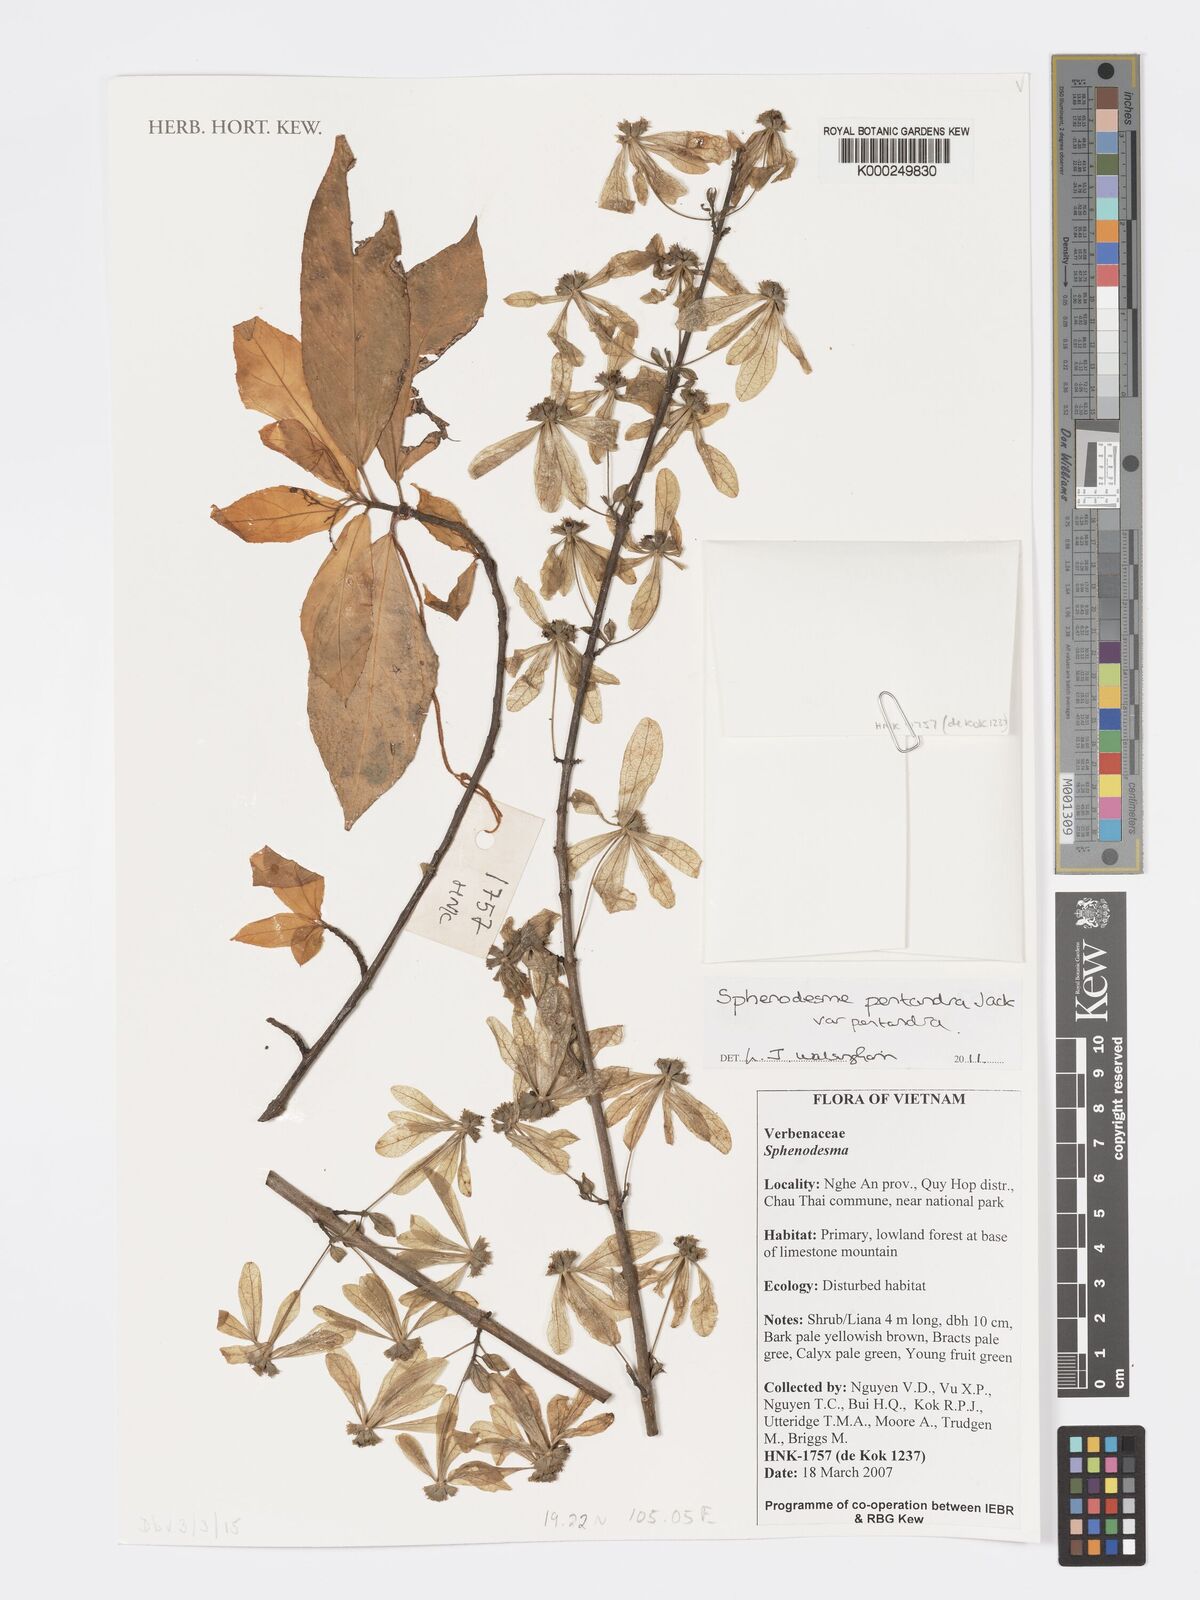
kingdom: Plantae
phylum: Tracheophyta
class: Magnoliopsida
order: Lamiales
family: Lamiaceae
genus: Sphenodesme
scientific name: Sphenodesme pentandra
